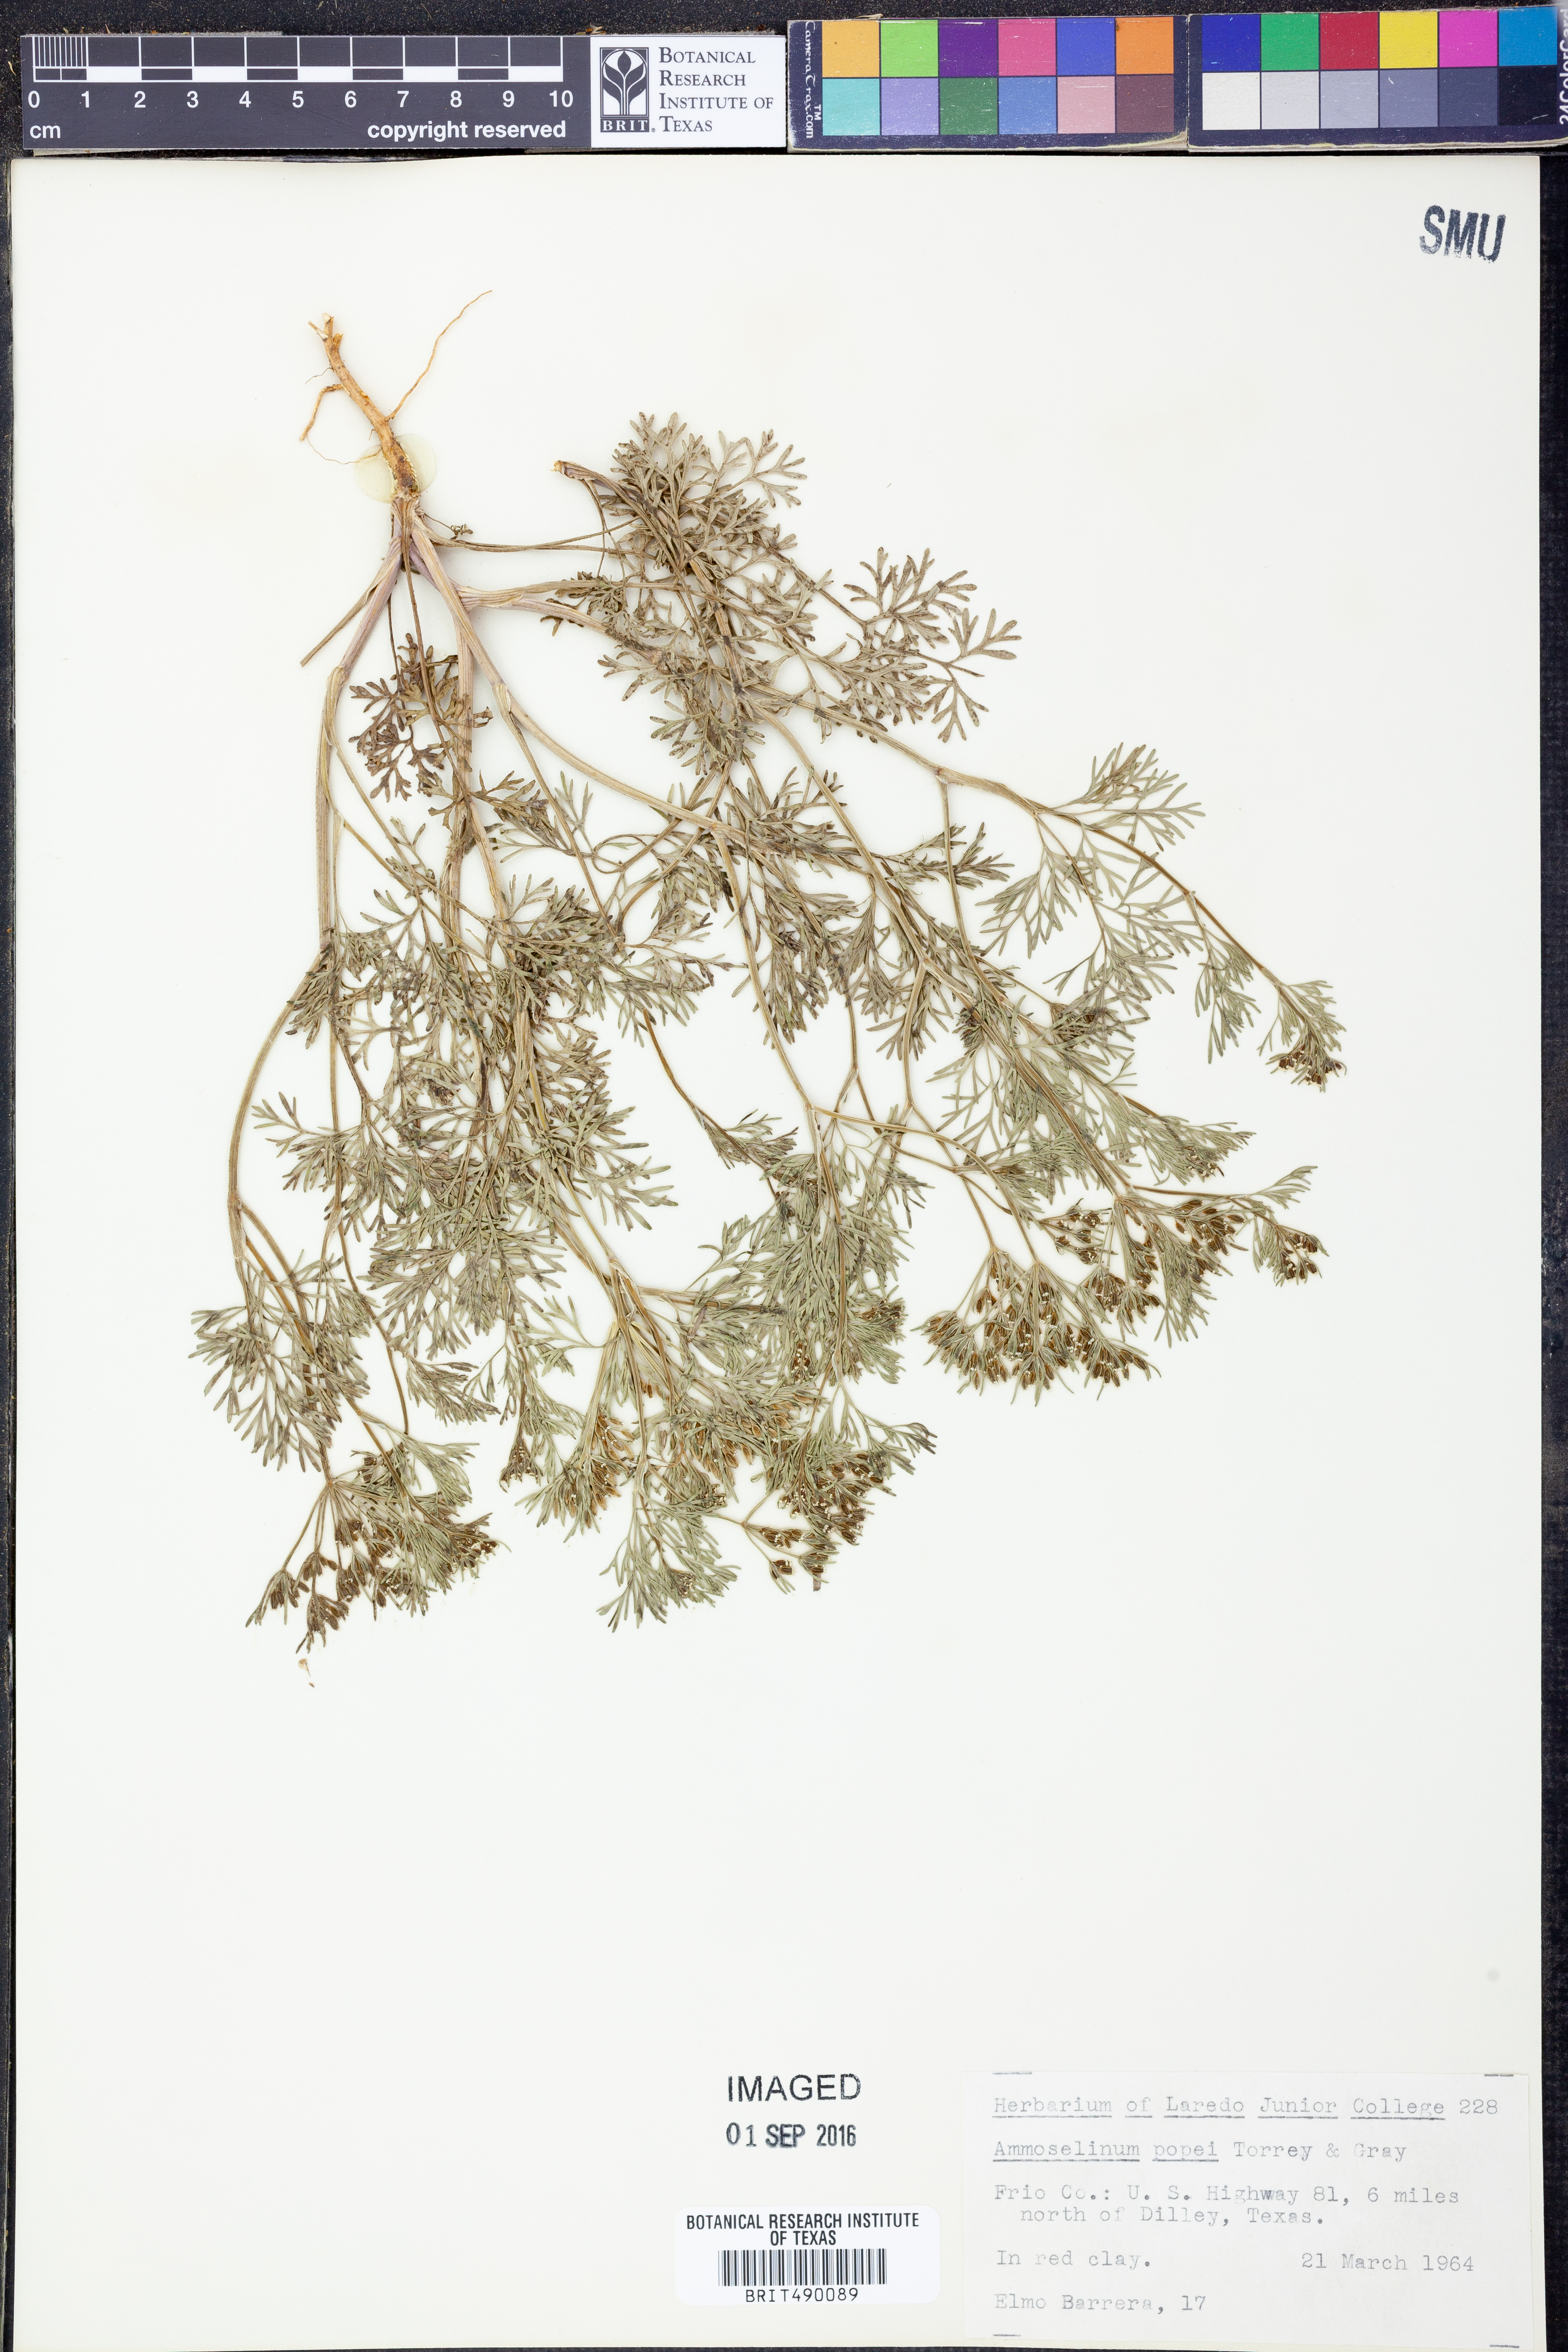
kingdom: Plantae
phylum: Tracheophyta
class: Magnoliopsida
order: Apiales
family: Apiaceae
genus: Ammoselinum
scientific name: Ammoselinum popei
